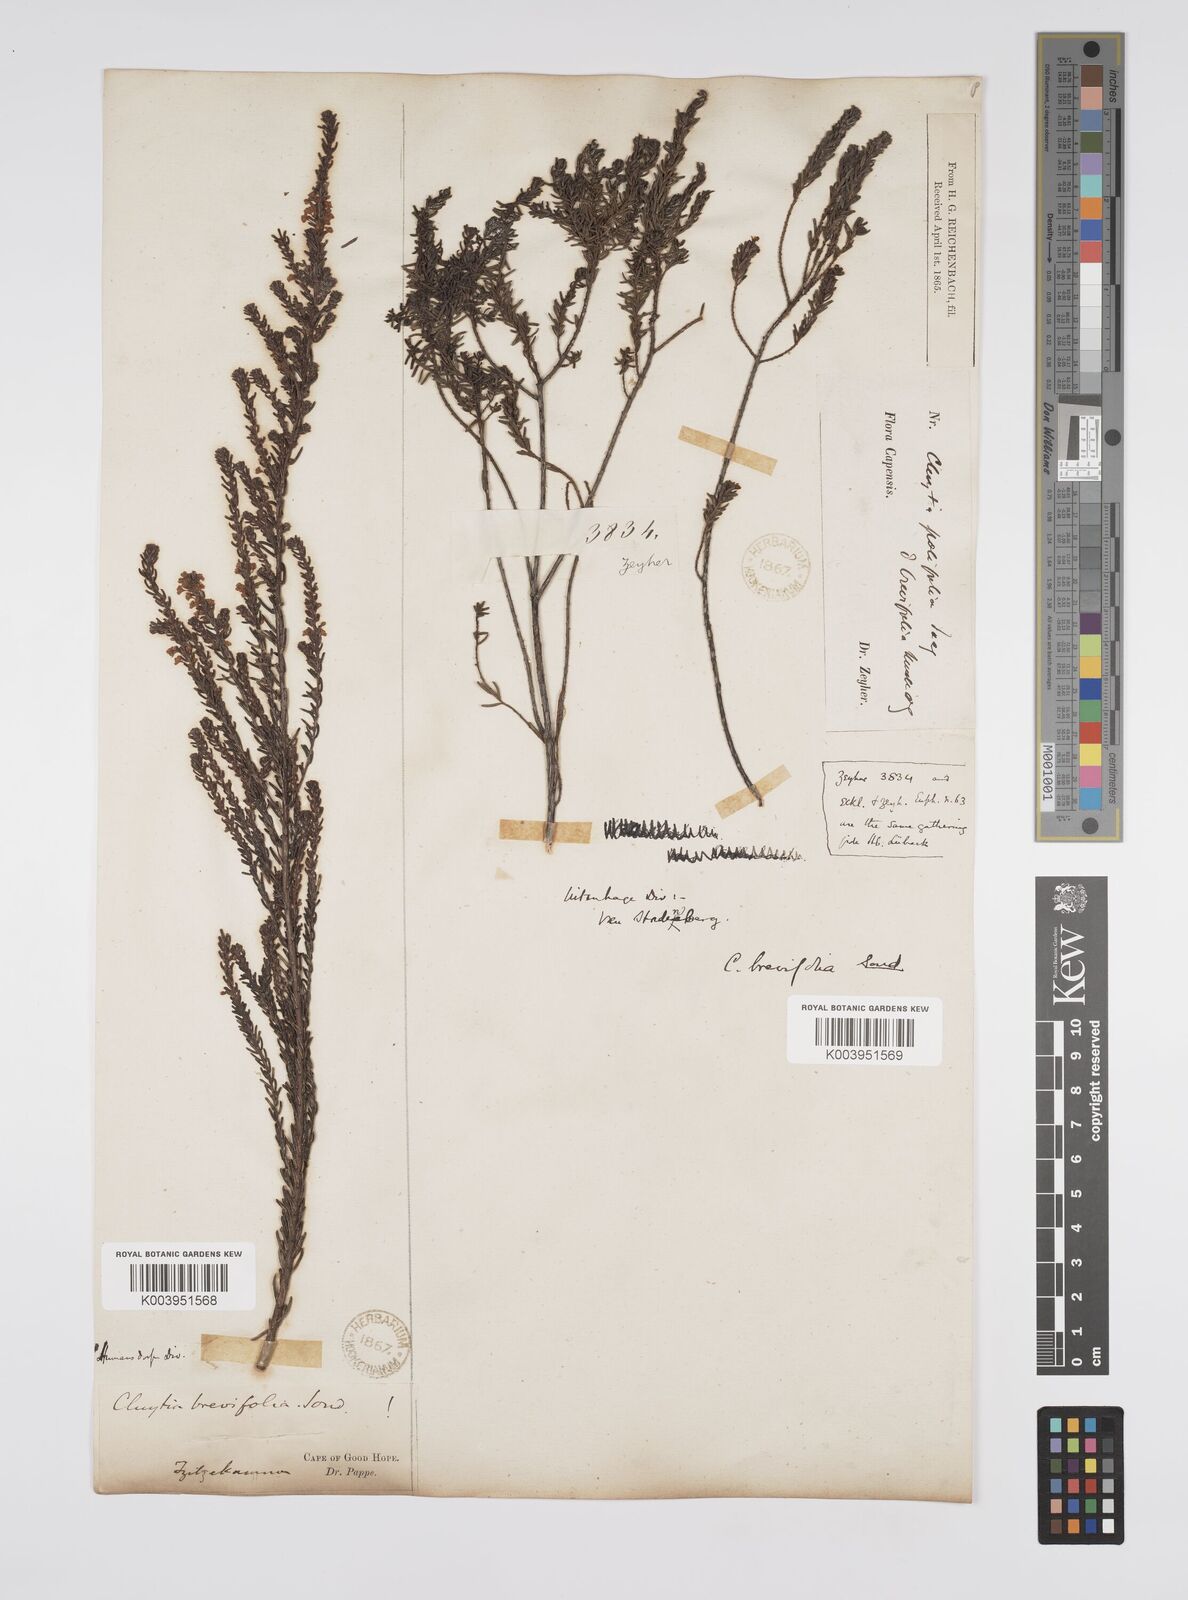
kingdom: Plantae
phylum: Tracheophyta
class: Magnoliopsida
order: Malpighiales
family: Peraceae
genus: Clutia
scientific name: Clutia brevifolia
